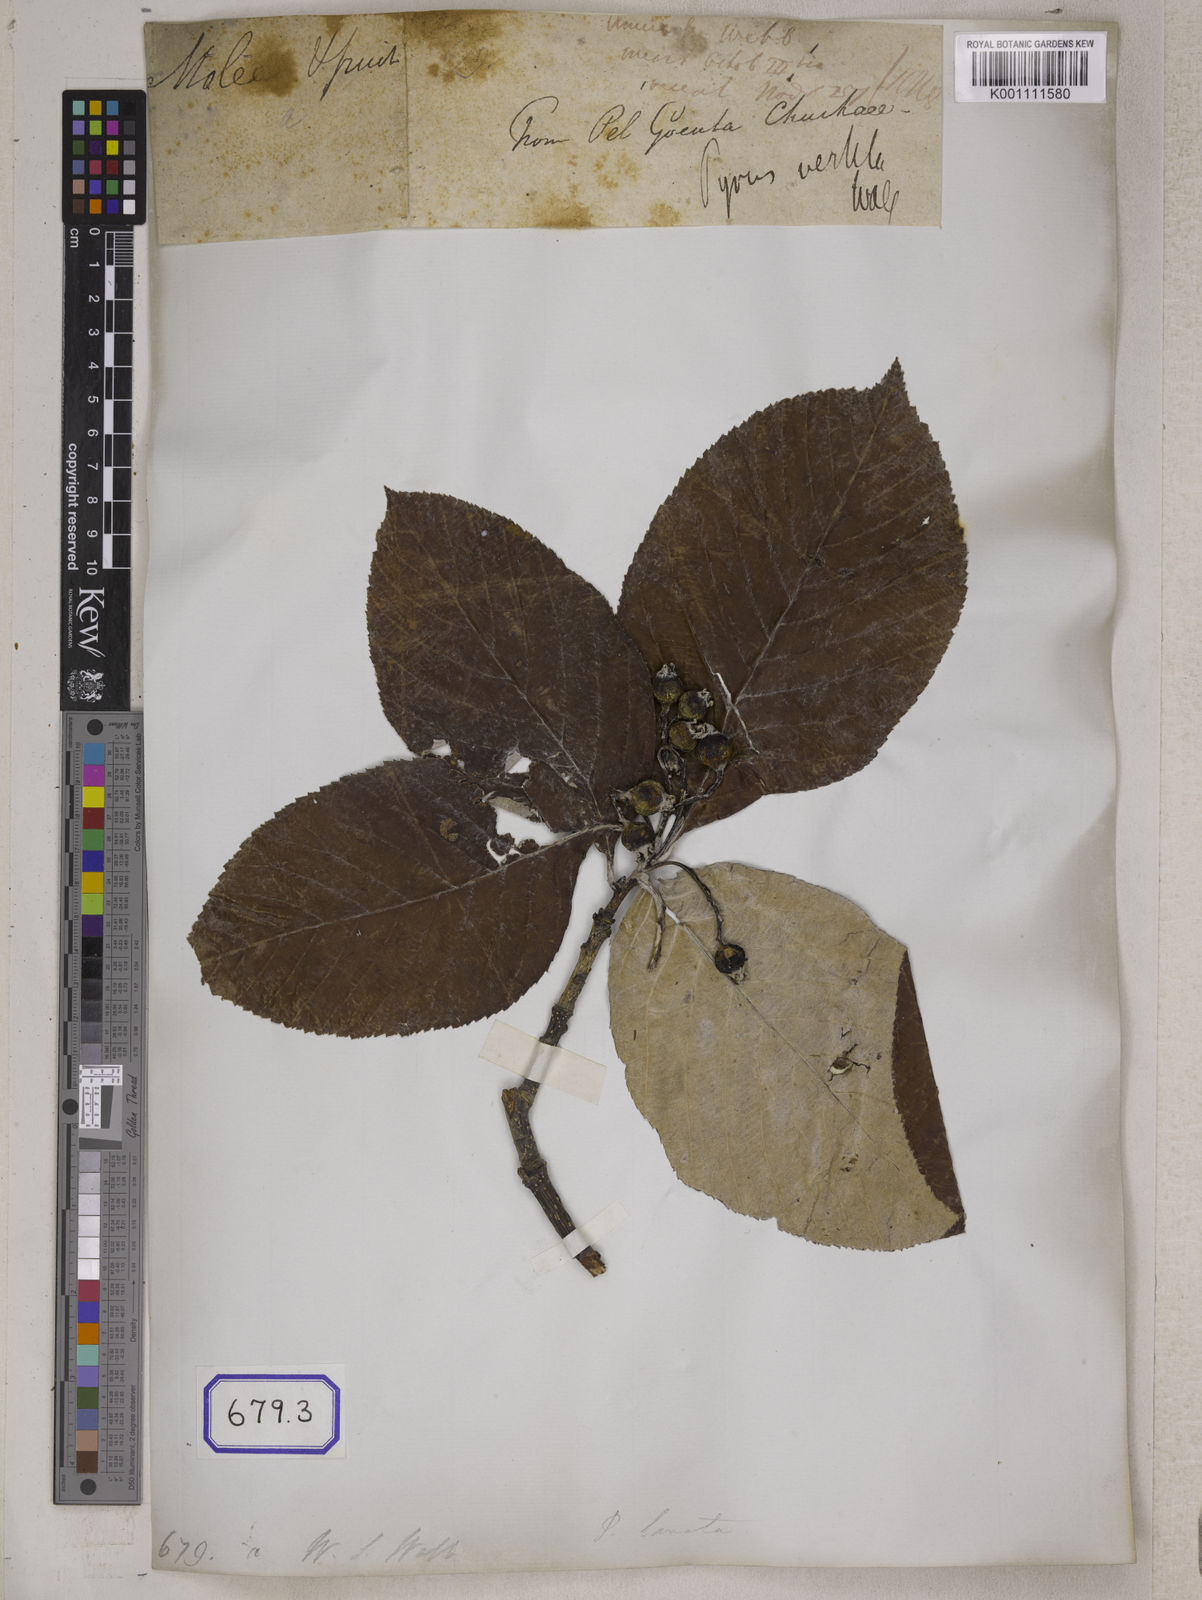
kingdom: Plantae
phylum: Tracheophyta
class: Magnoliopsida
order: Rosales
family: Rosaceae
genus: Pyrus
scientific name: Pyrus
